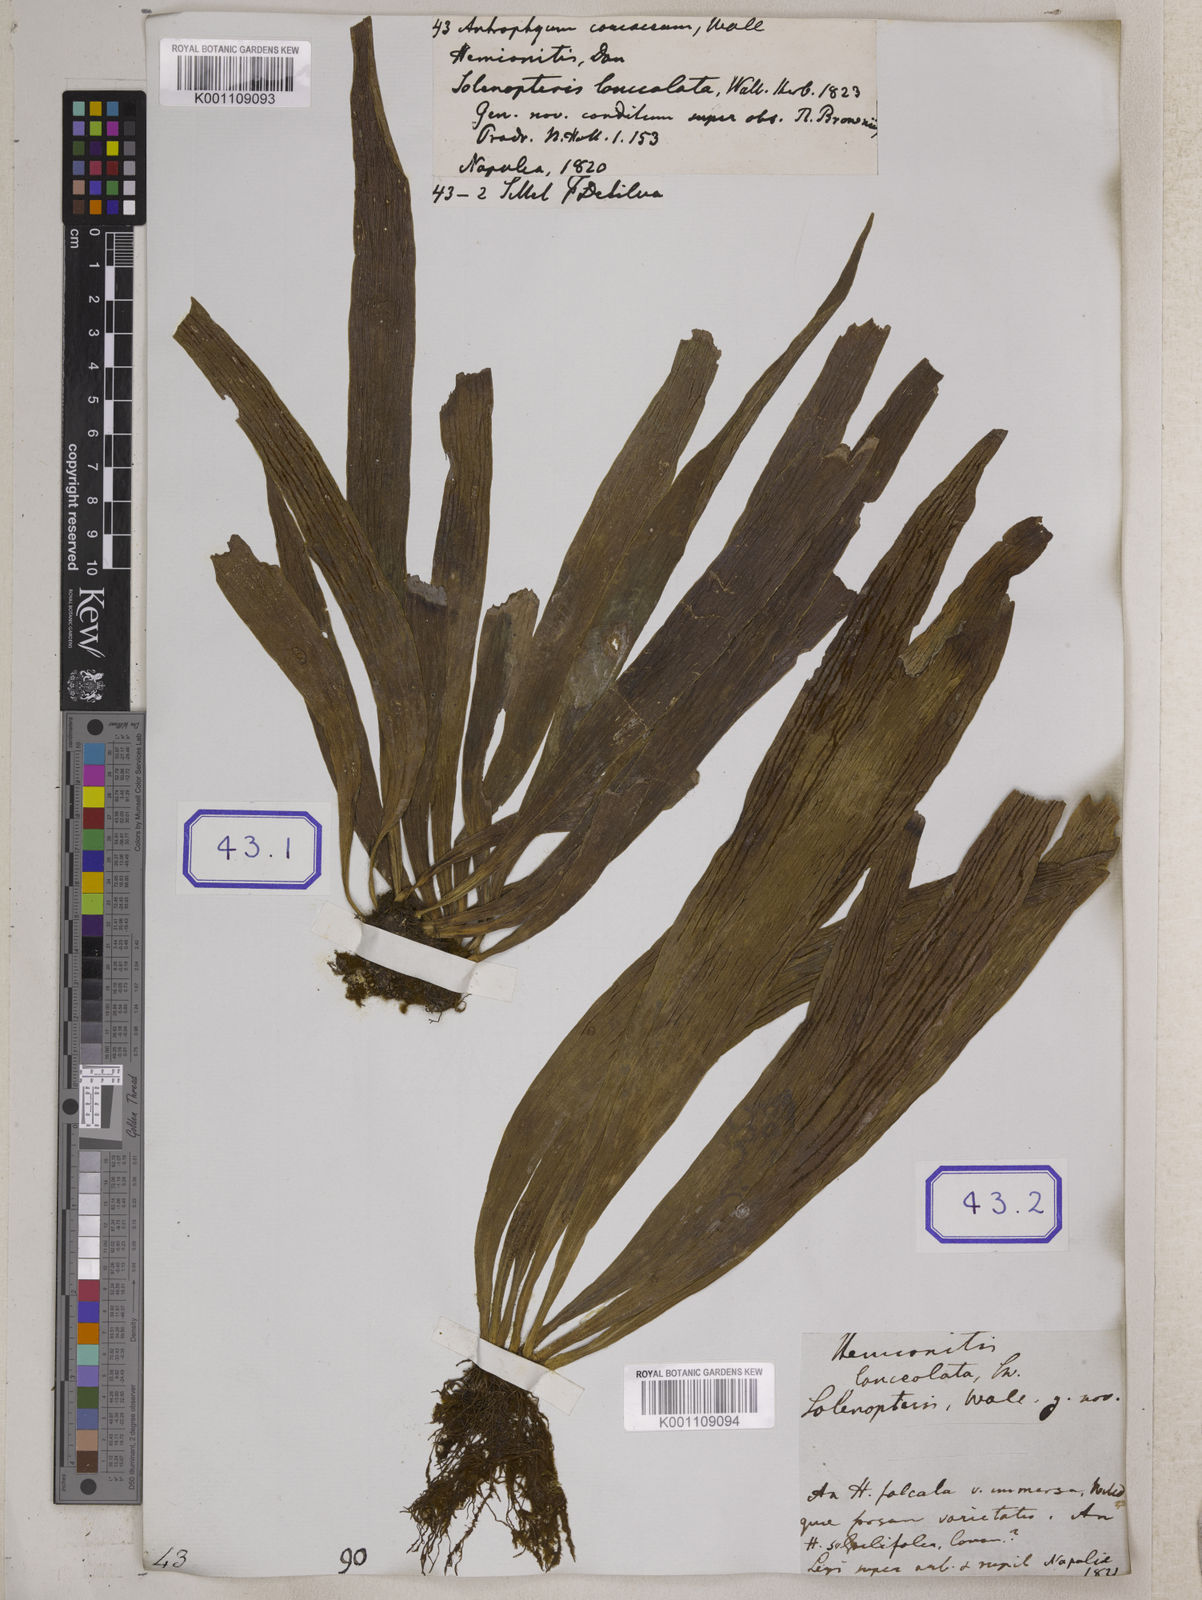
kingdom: Plantae
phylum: Tracheophyta
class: Polypodiopsida
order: Polypodiales
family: Pteridaceae
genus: Antrophyum
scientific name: Antrophyum reticulatum
